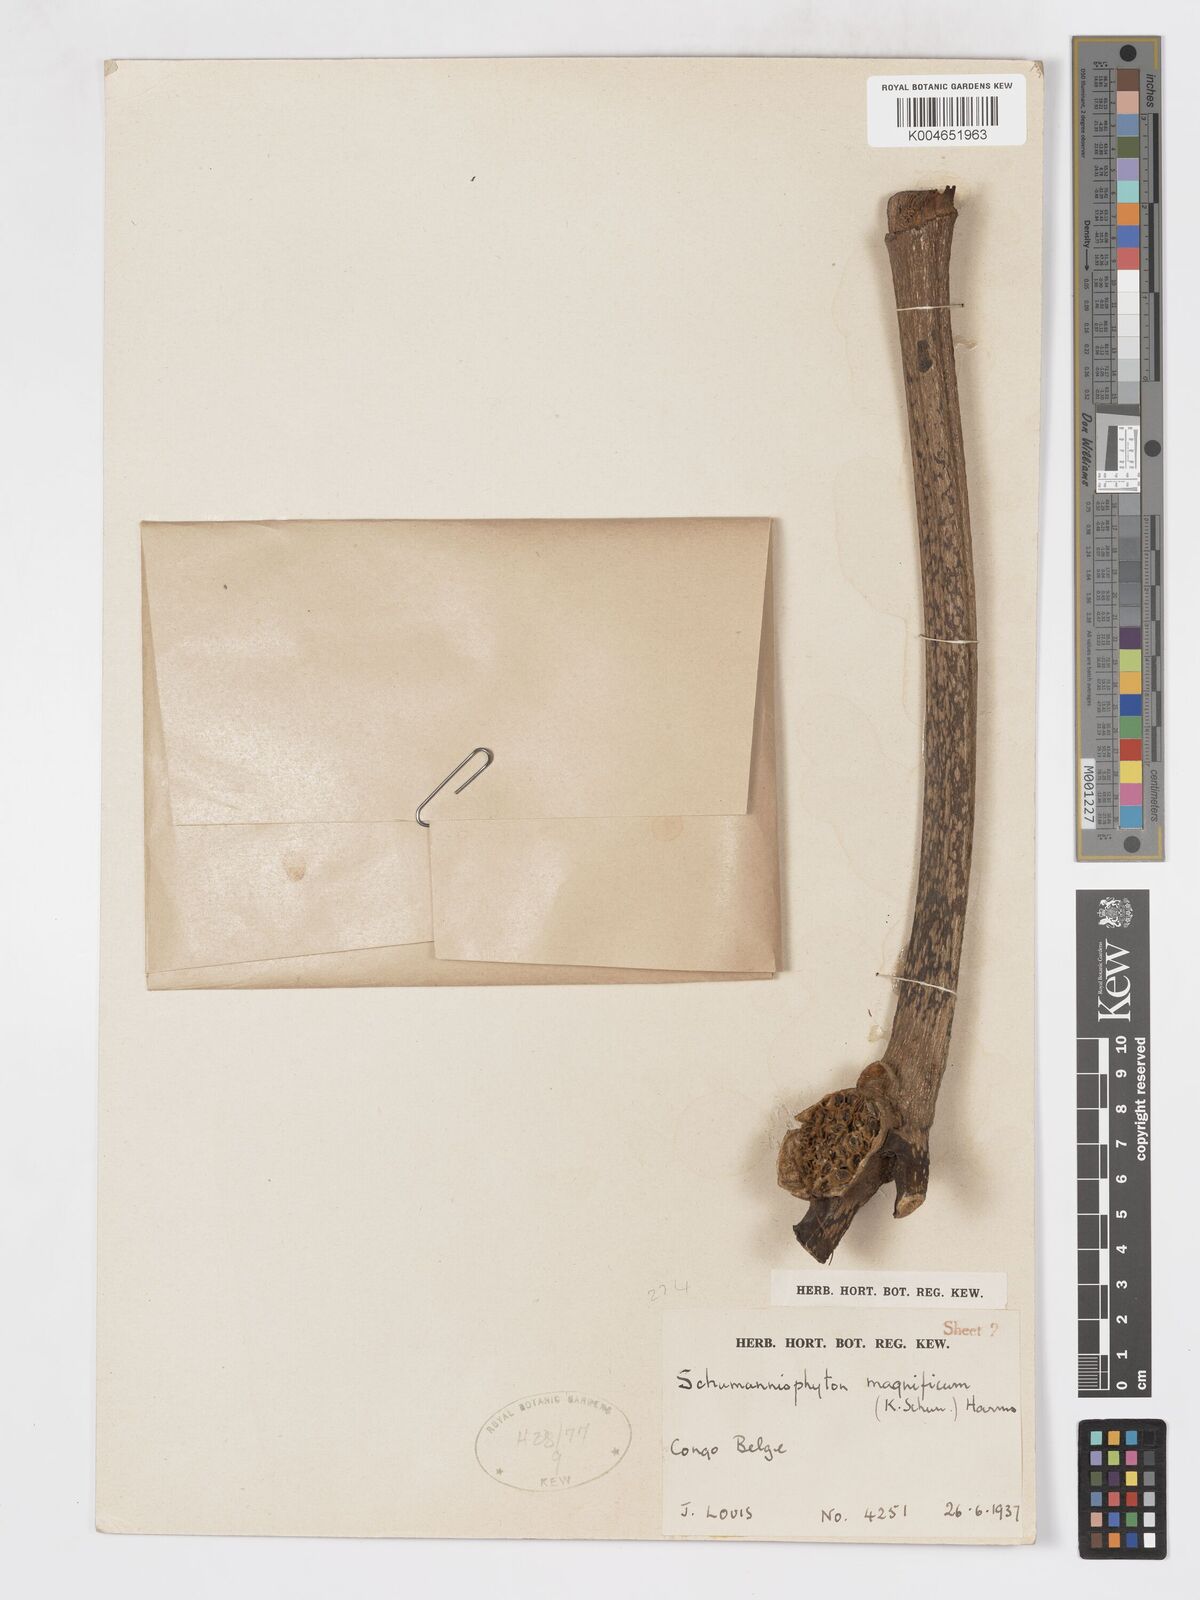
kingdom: Plantae
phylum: Tracheophyta
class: Magnoliopsida
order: Gentianales
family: Rubiaceae
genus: Schumanniophyton
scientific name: Schumanniophyton magnificum
